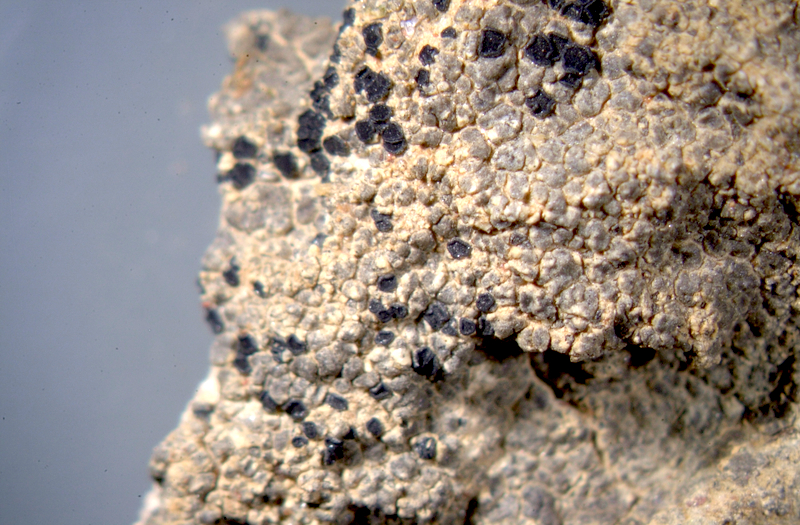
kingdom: Fungi
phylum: Ascomycota
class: Lecanoromycetes
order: Caliciales
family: Caliciaceae
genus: Buellia
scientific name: Buellia
